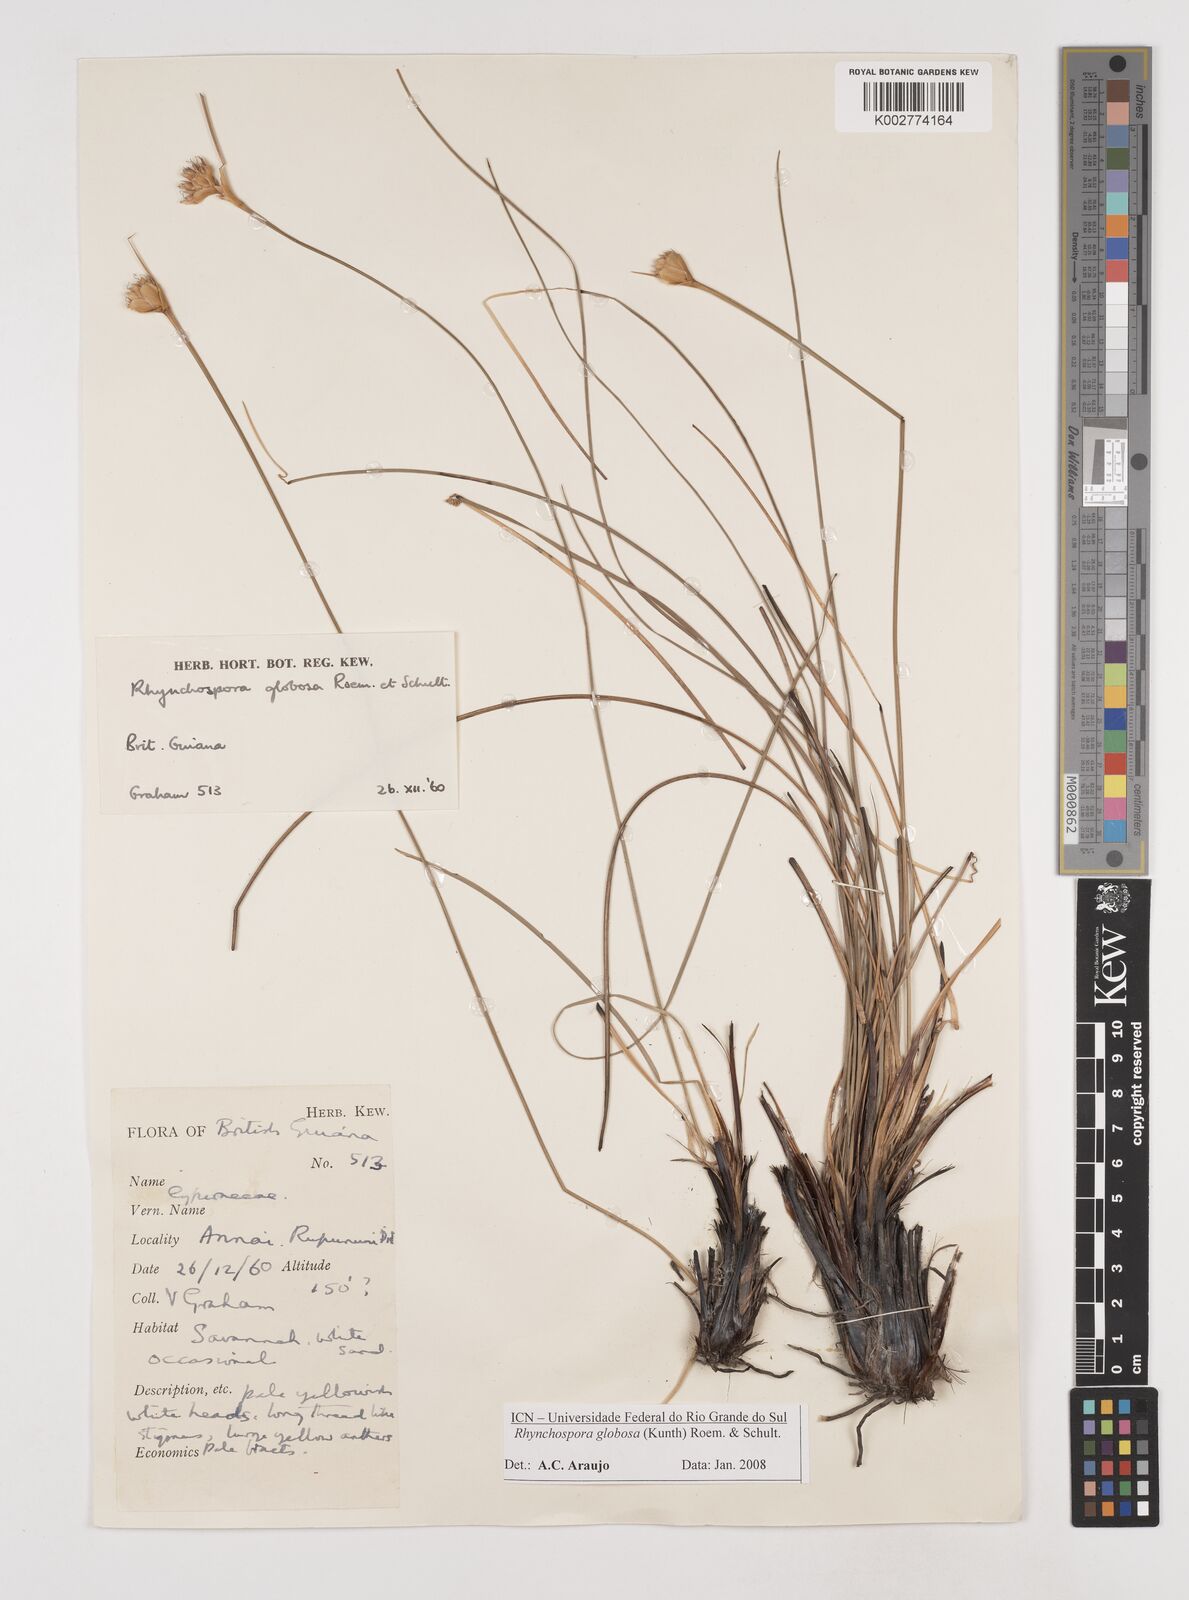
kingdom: Plantae
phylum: Tracheophyta
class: Liliopsida
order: Poales
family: Cyperaceae
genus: Rhynchospora
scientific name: Rhynchospora globosa
